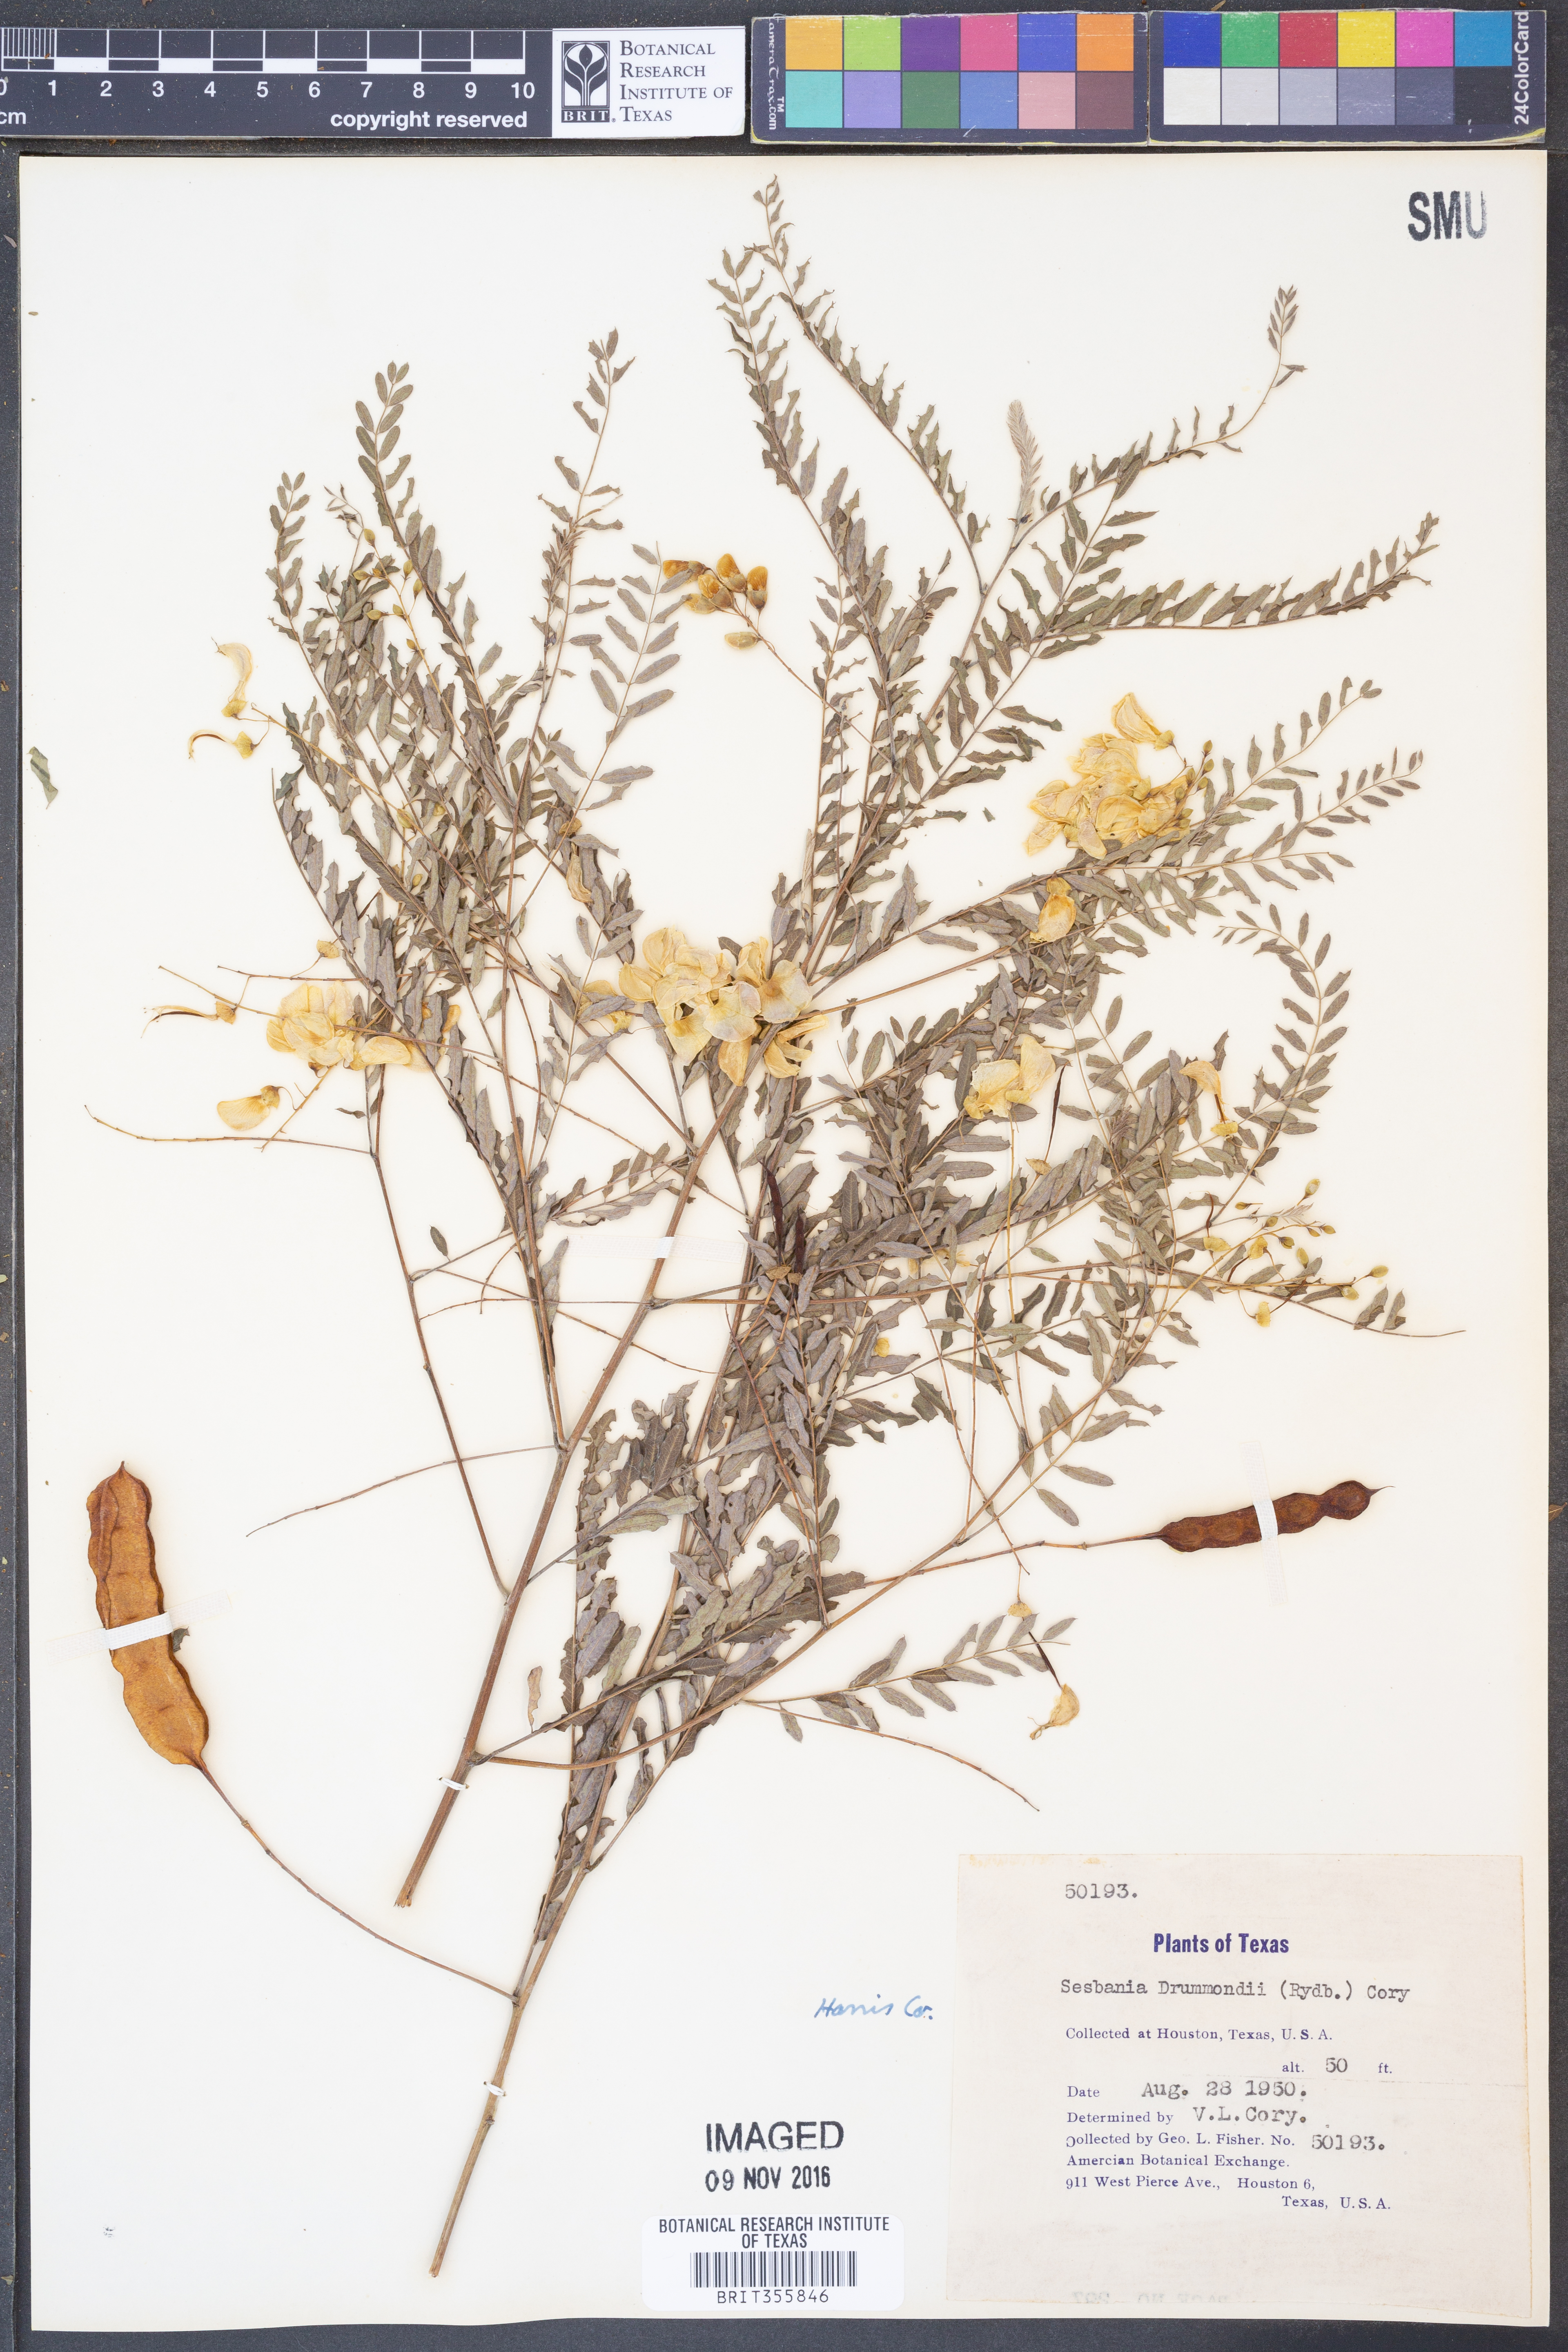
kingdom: Plantae
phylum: Tracheophyta
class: Magnoliopsida
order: Fabales
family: Fabaceae
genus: Sesbania
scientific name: Sesbania drummondii
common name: Poison-bean
